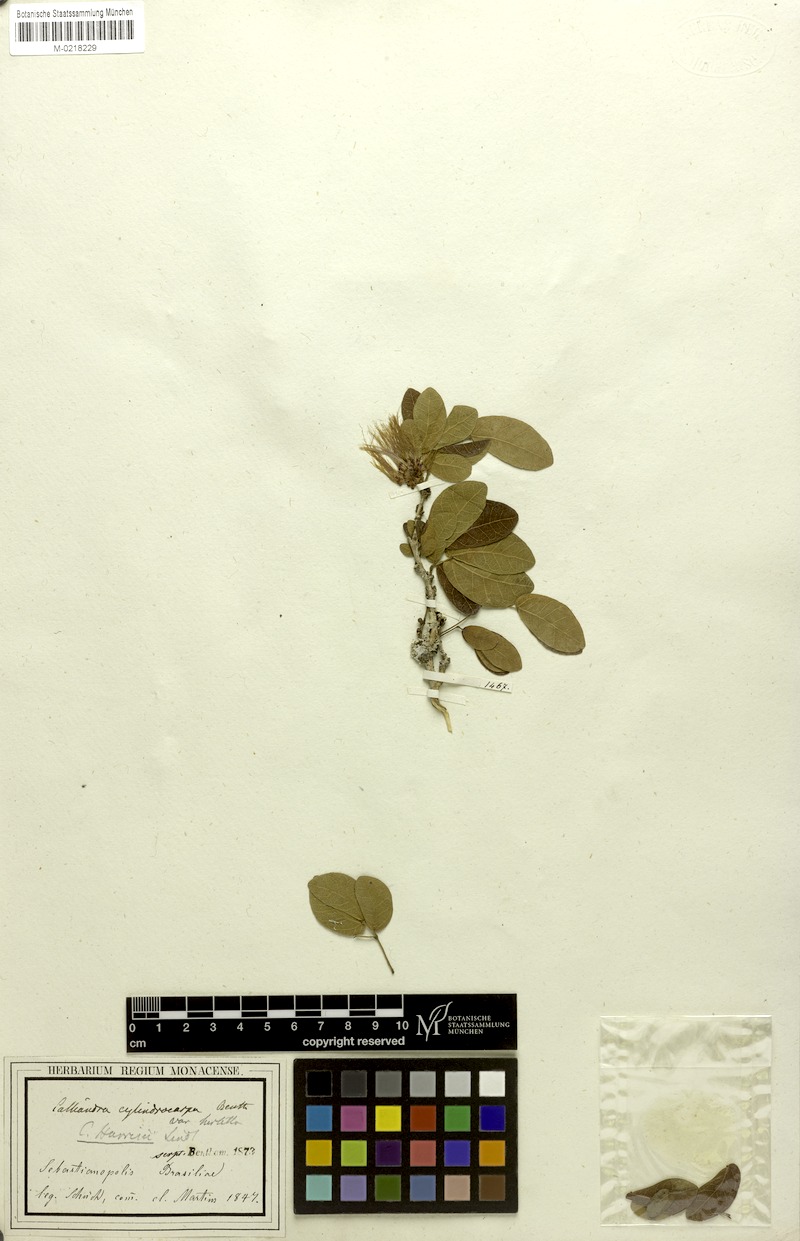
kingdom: Plantae
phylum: Tracheophyta
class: Magnoliopsida
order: Fabales
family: Fabaceae
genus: Calliandra
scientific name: Calliandra harrisii
